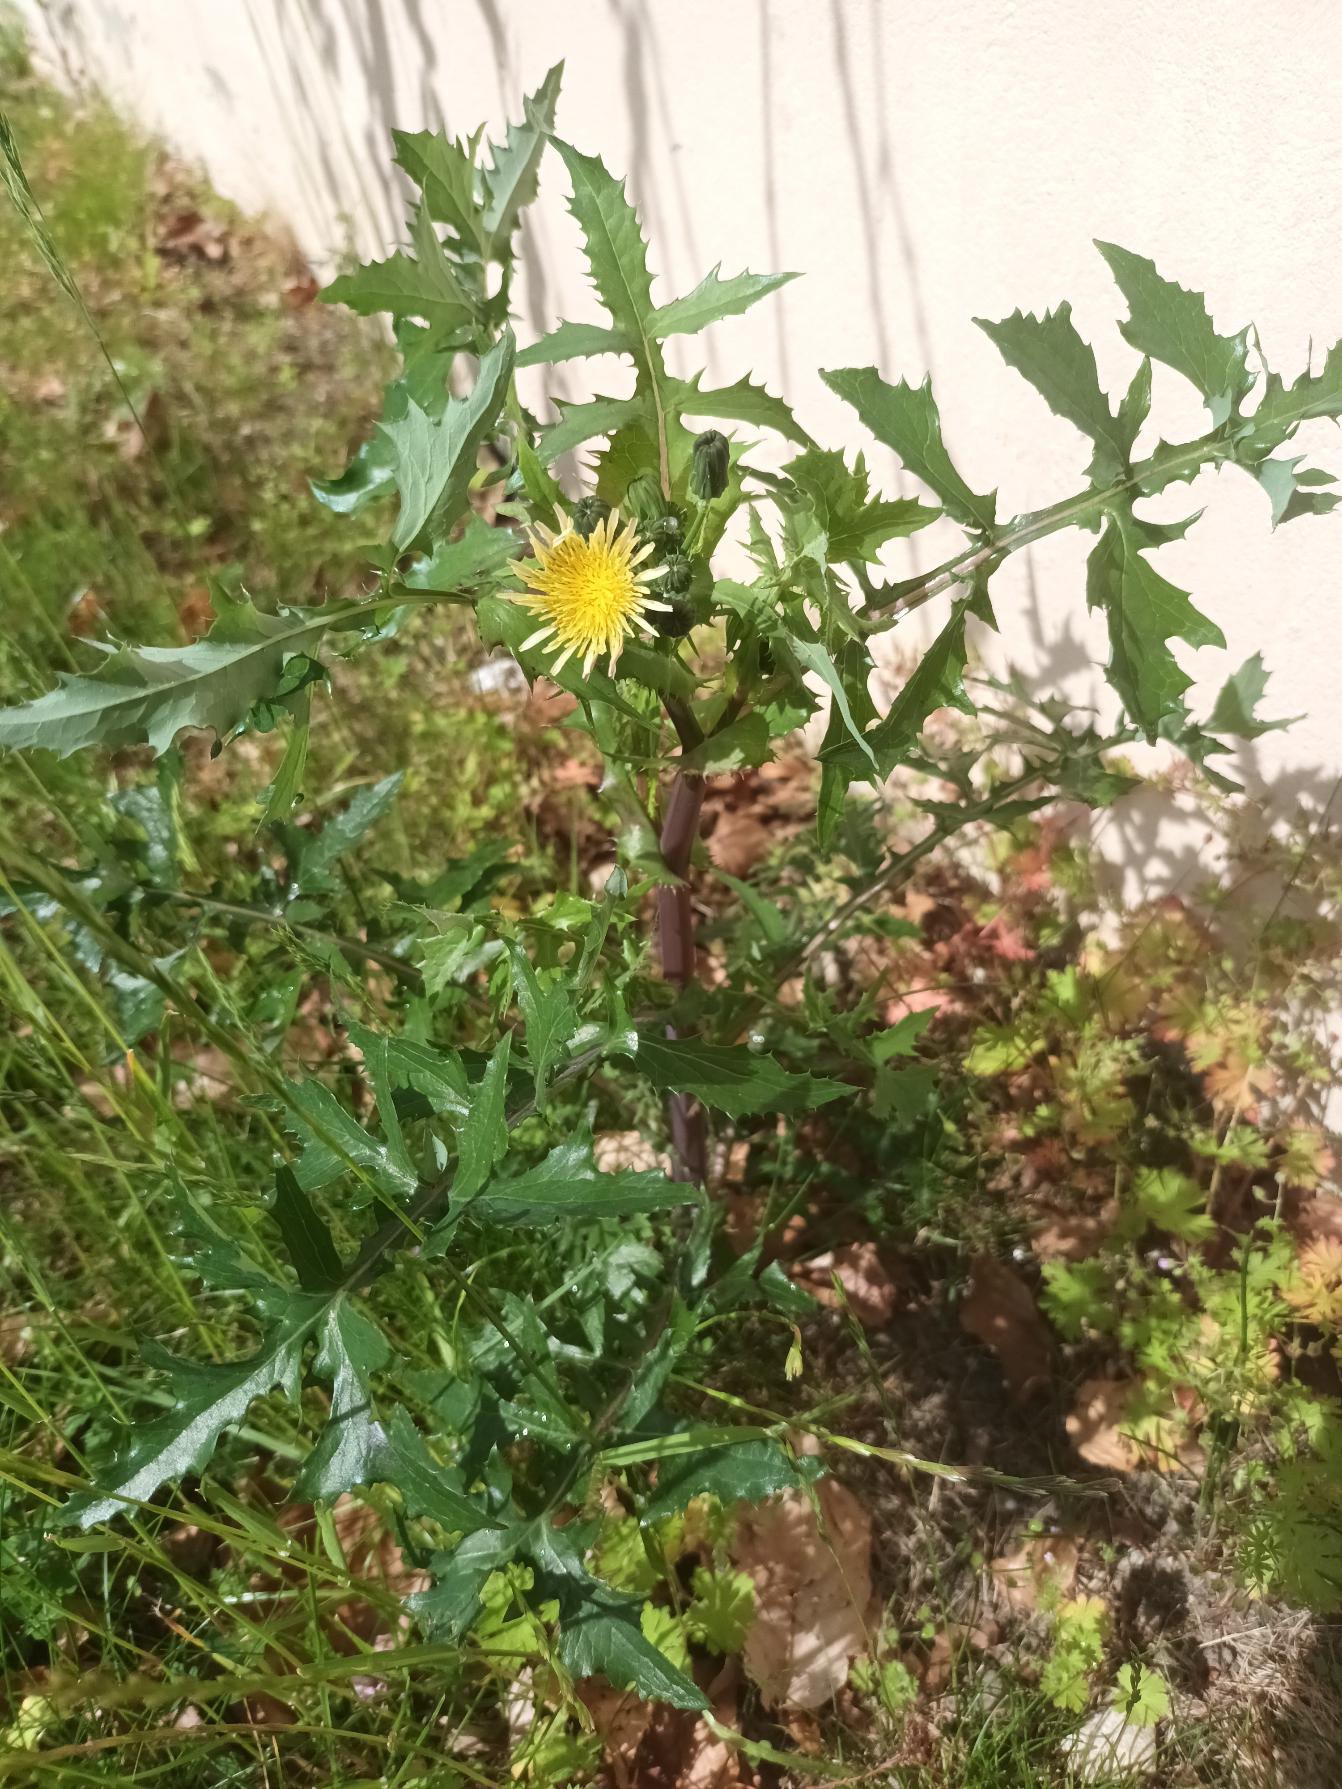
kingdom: Plantae
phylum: Tracheophyta
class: Magnoliopsida
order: Asterales
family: Asteraceae
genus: Sonchus
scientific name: Sonchus oleraceus
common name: Almindelig svinemælk
